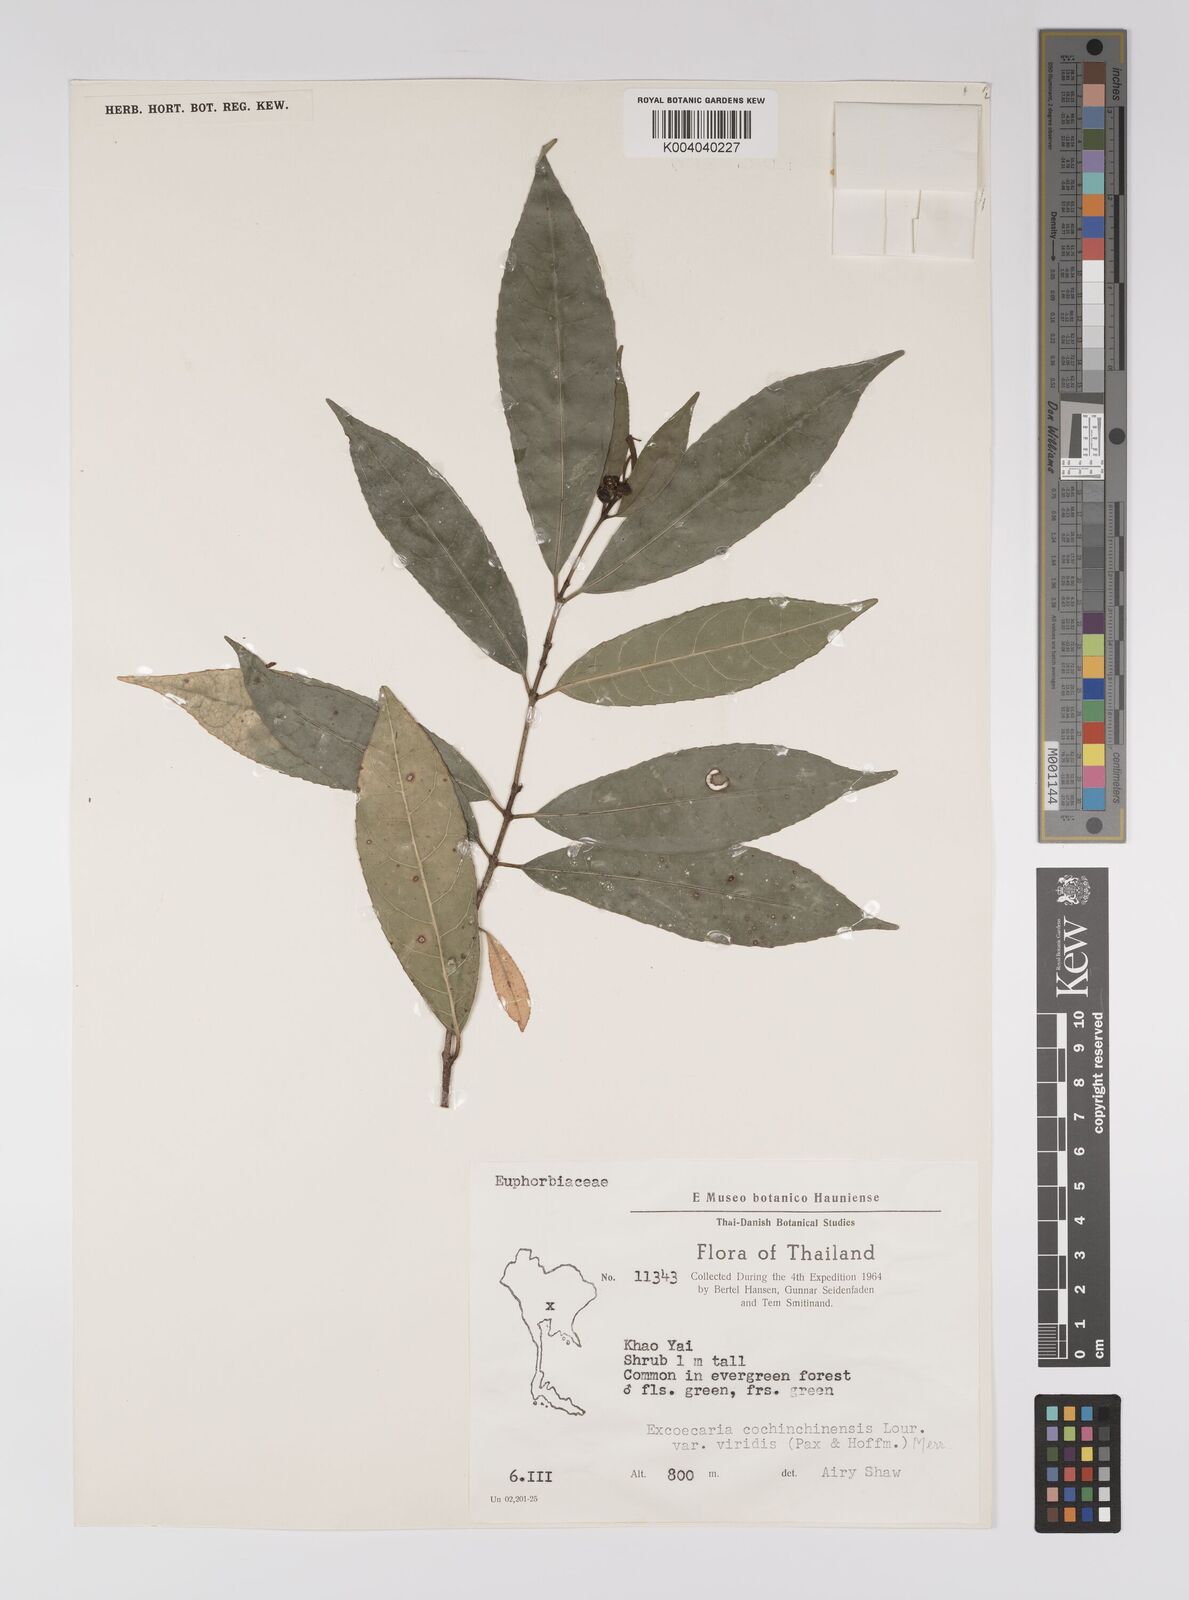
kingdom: Plantae
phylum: Tracheophyta
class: Magnoliopsida
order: Malpighiales
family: Euphorbiaceae
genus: Excoecaria
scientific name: Excoecaria cochinchinensis
